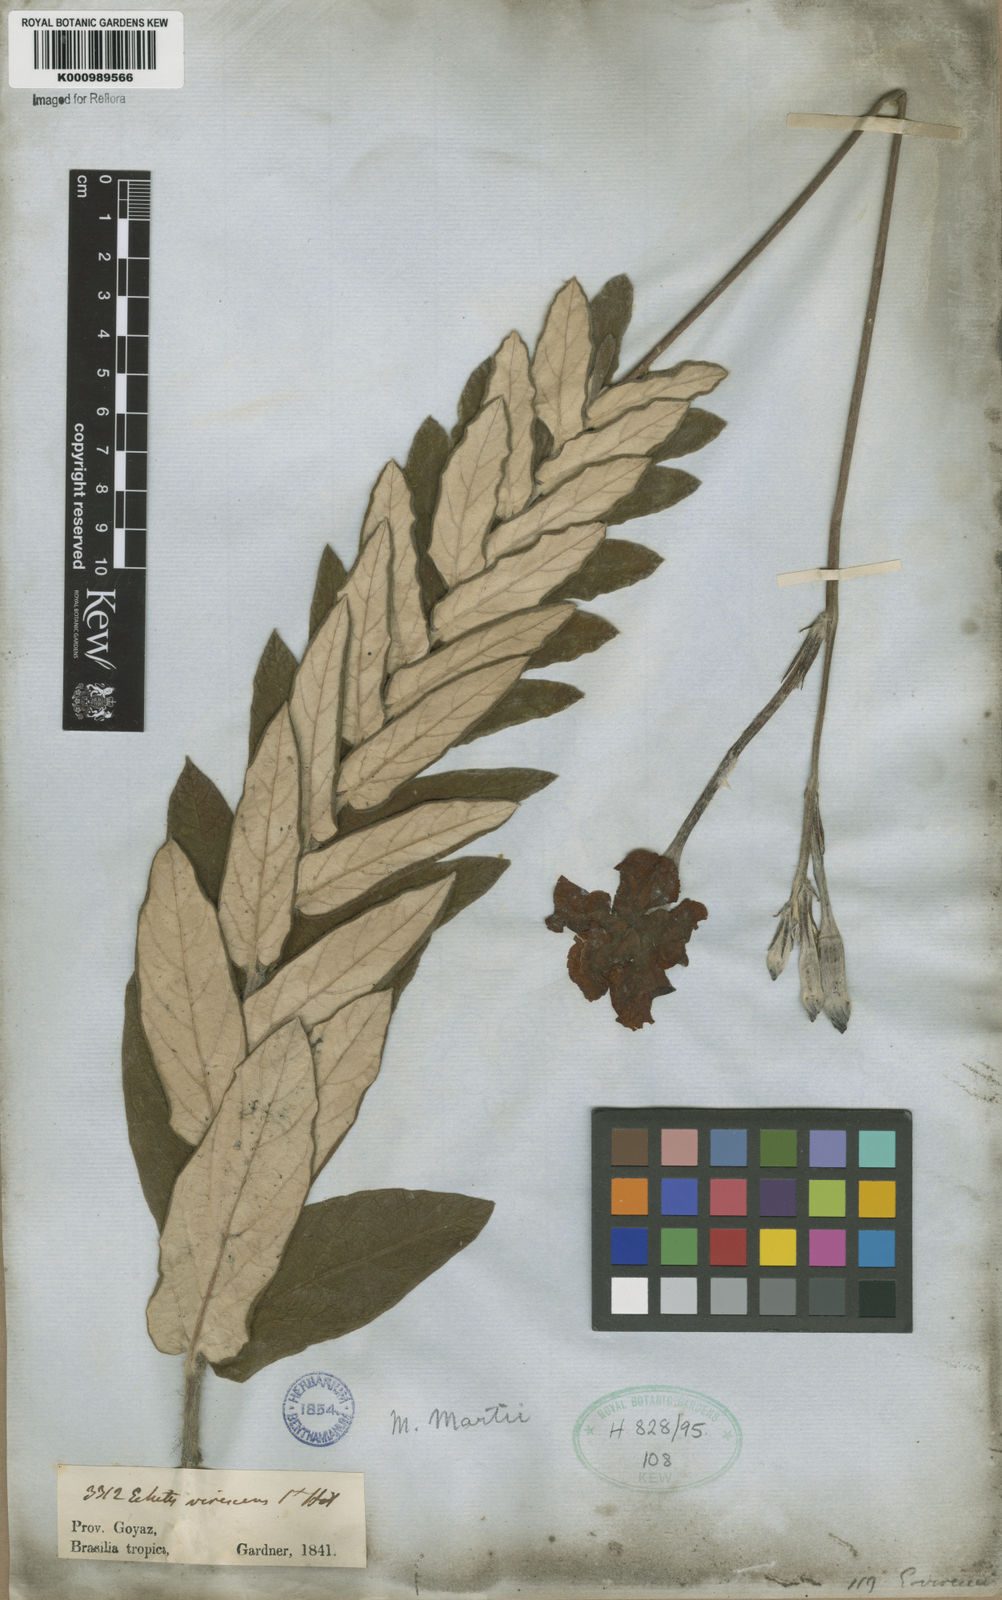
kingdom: Plantae
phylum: Tracheophyta
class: Magnoliopsida
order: Gentianales
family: Apocynaceae
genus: Mandevilla
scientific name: Mandevilla
